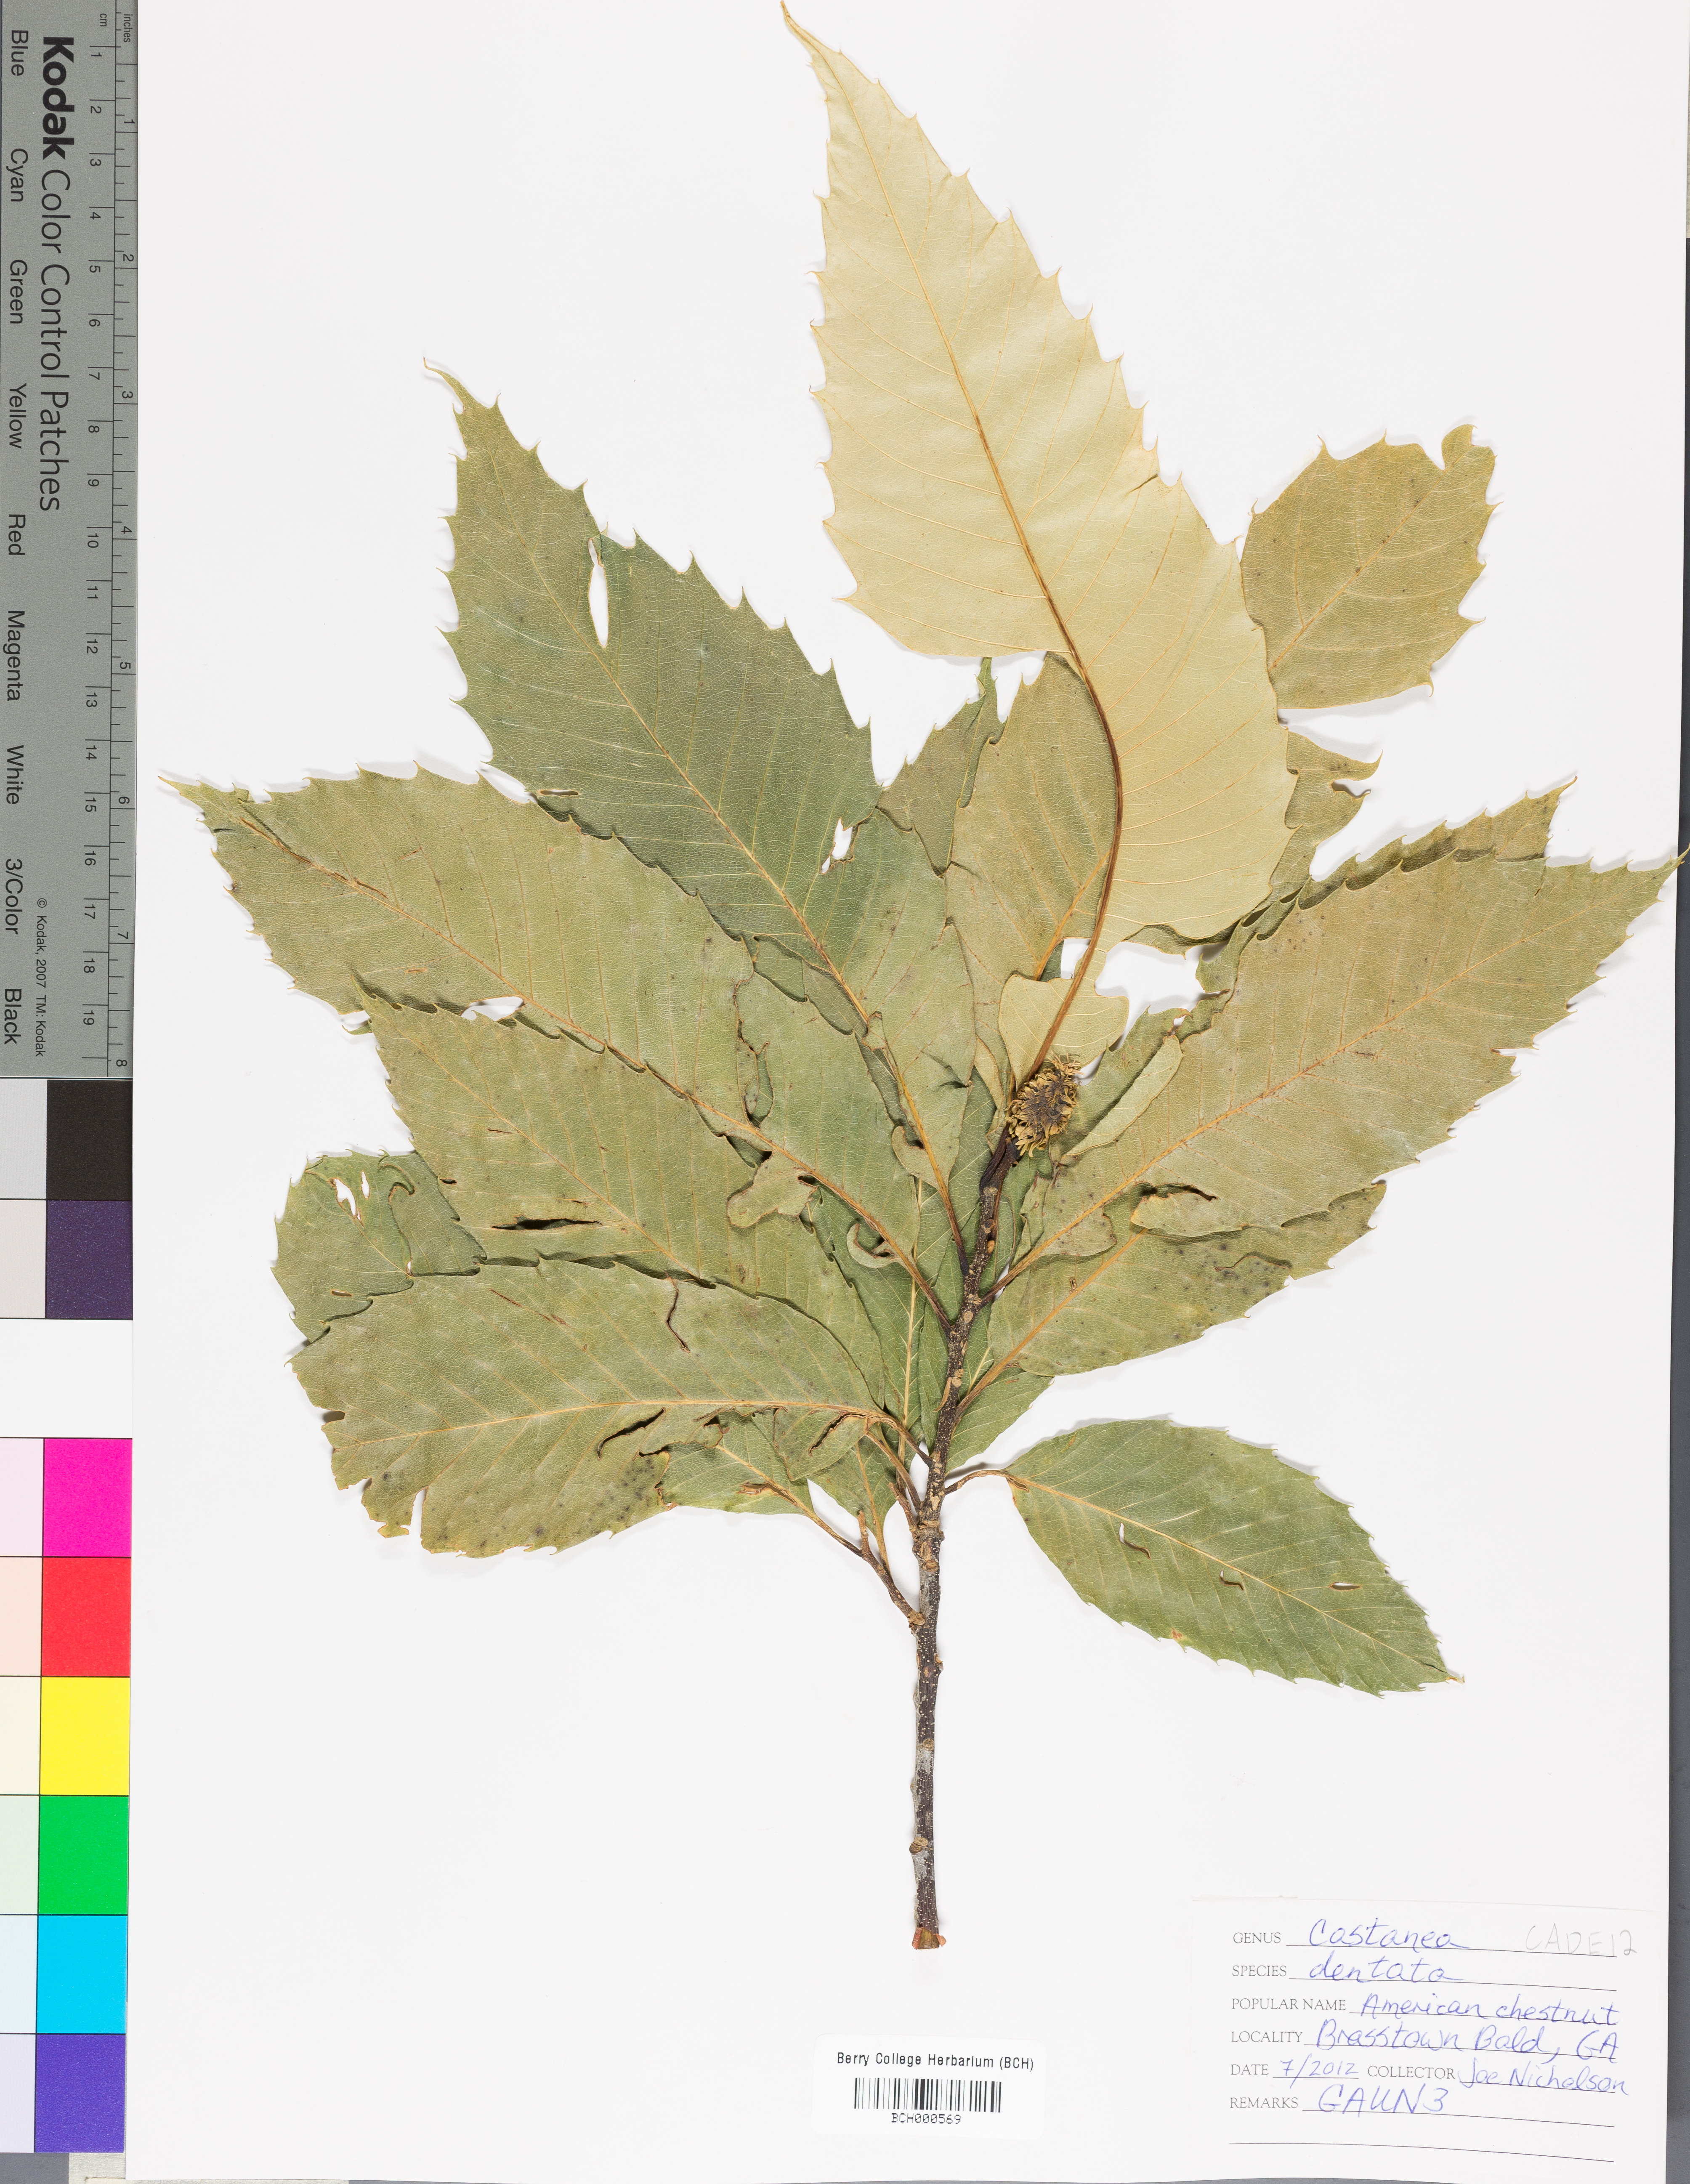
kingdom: Plantae
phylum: Tracheophyta
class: Magnoliopsida
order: Fagales
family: Fagaceae
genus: Castanea
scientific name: Castanea dentata
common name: American chestnut
